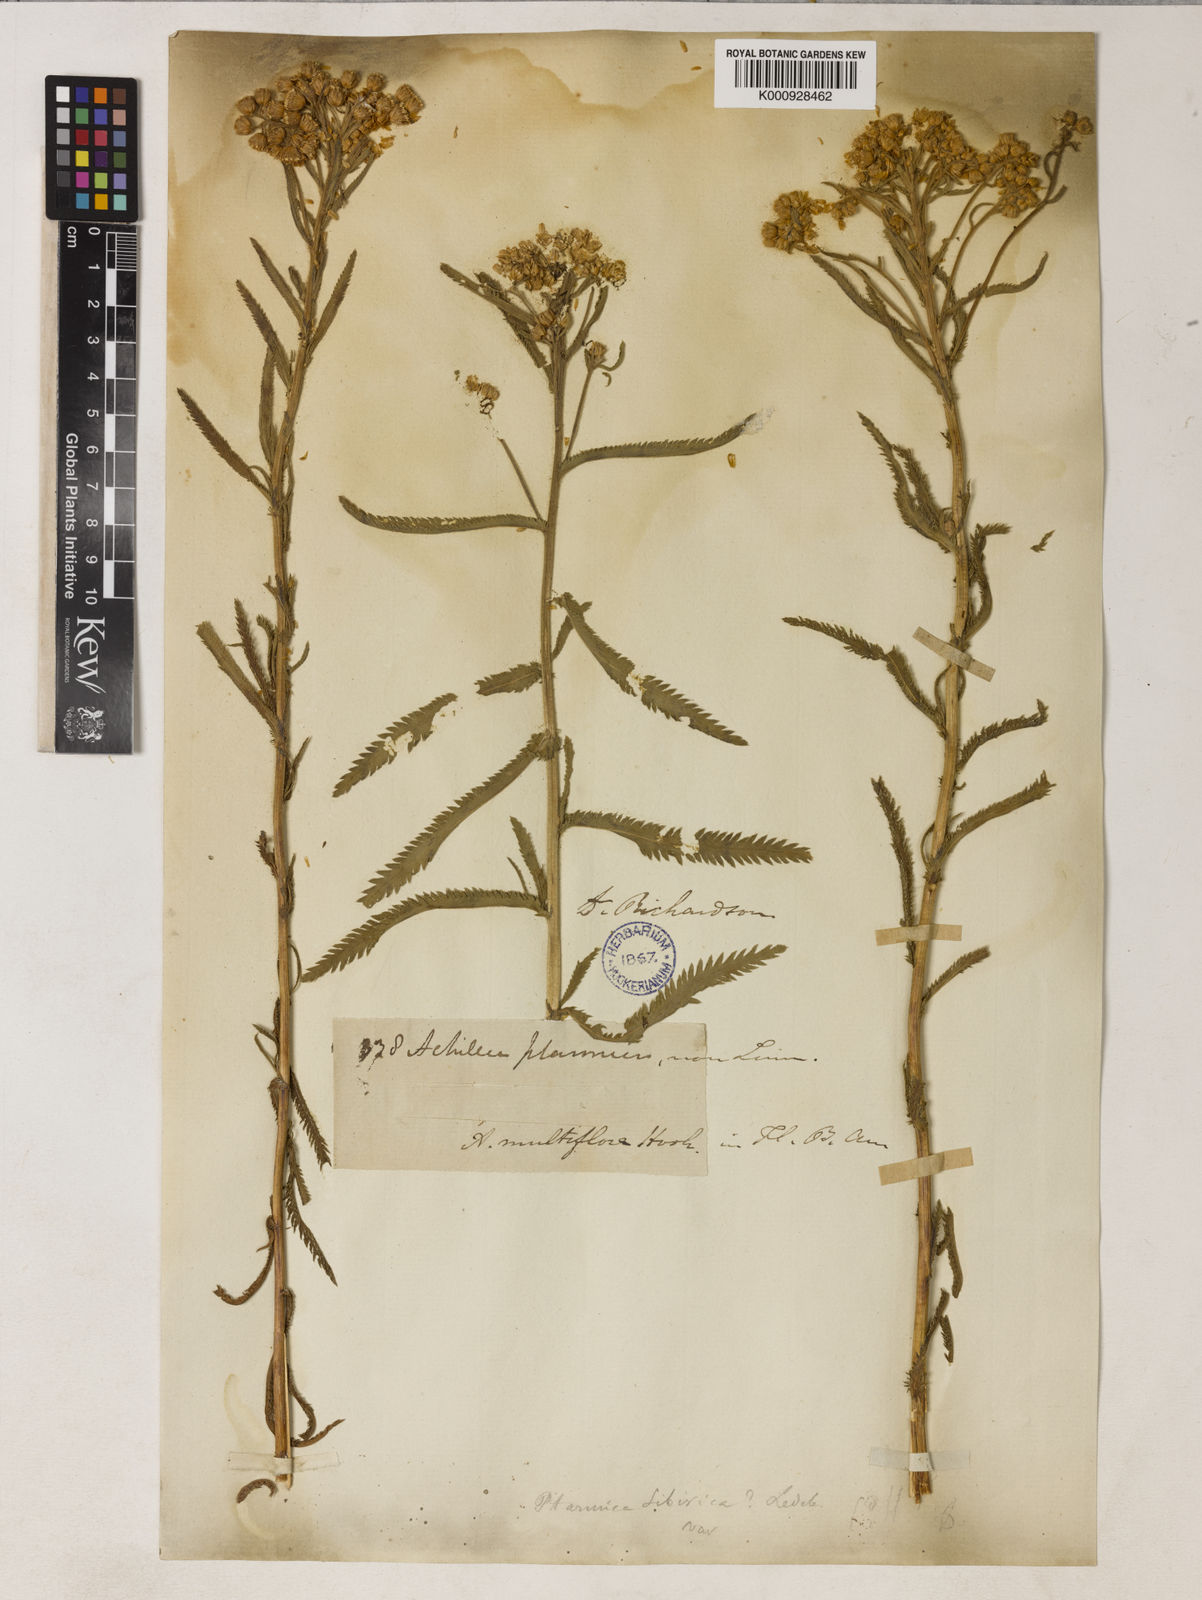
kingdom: Plantae
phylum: Tracheophyta
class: Magnoliopsida
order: Asterales
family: Asteraceae
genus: Achillea
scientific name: Achillea alpina
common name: Siberian yarrow
